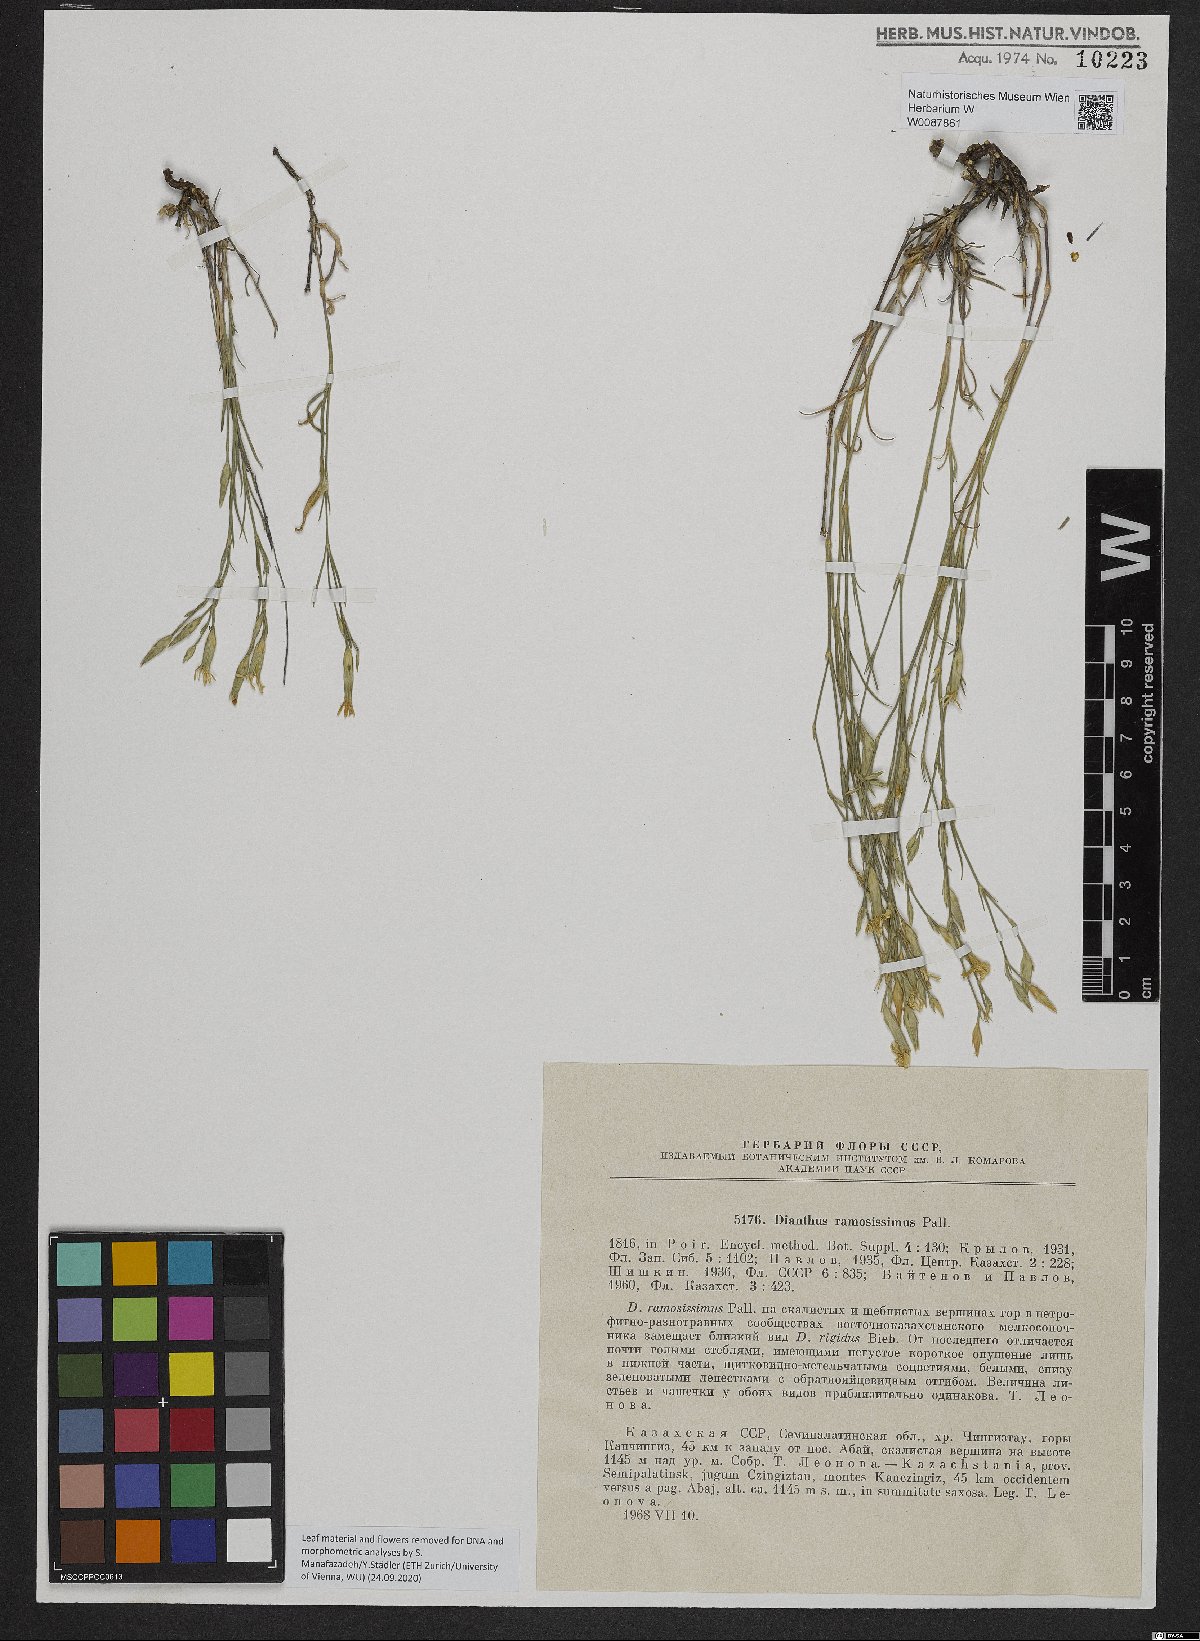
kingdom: Plantae
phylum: Tracheophyta
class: Magnoliopsida
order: Caryophyllales
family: Caryophyllaceae
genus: Dianthus
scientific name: Dianthus ramosissimus
